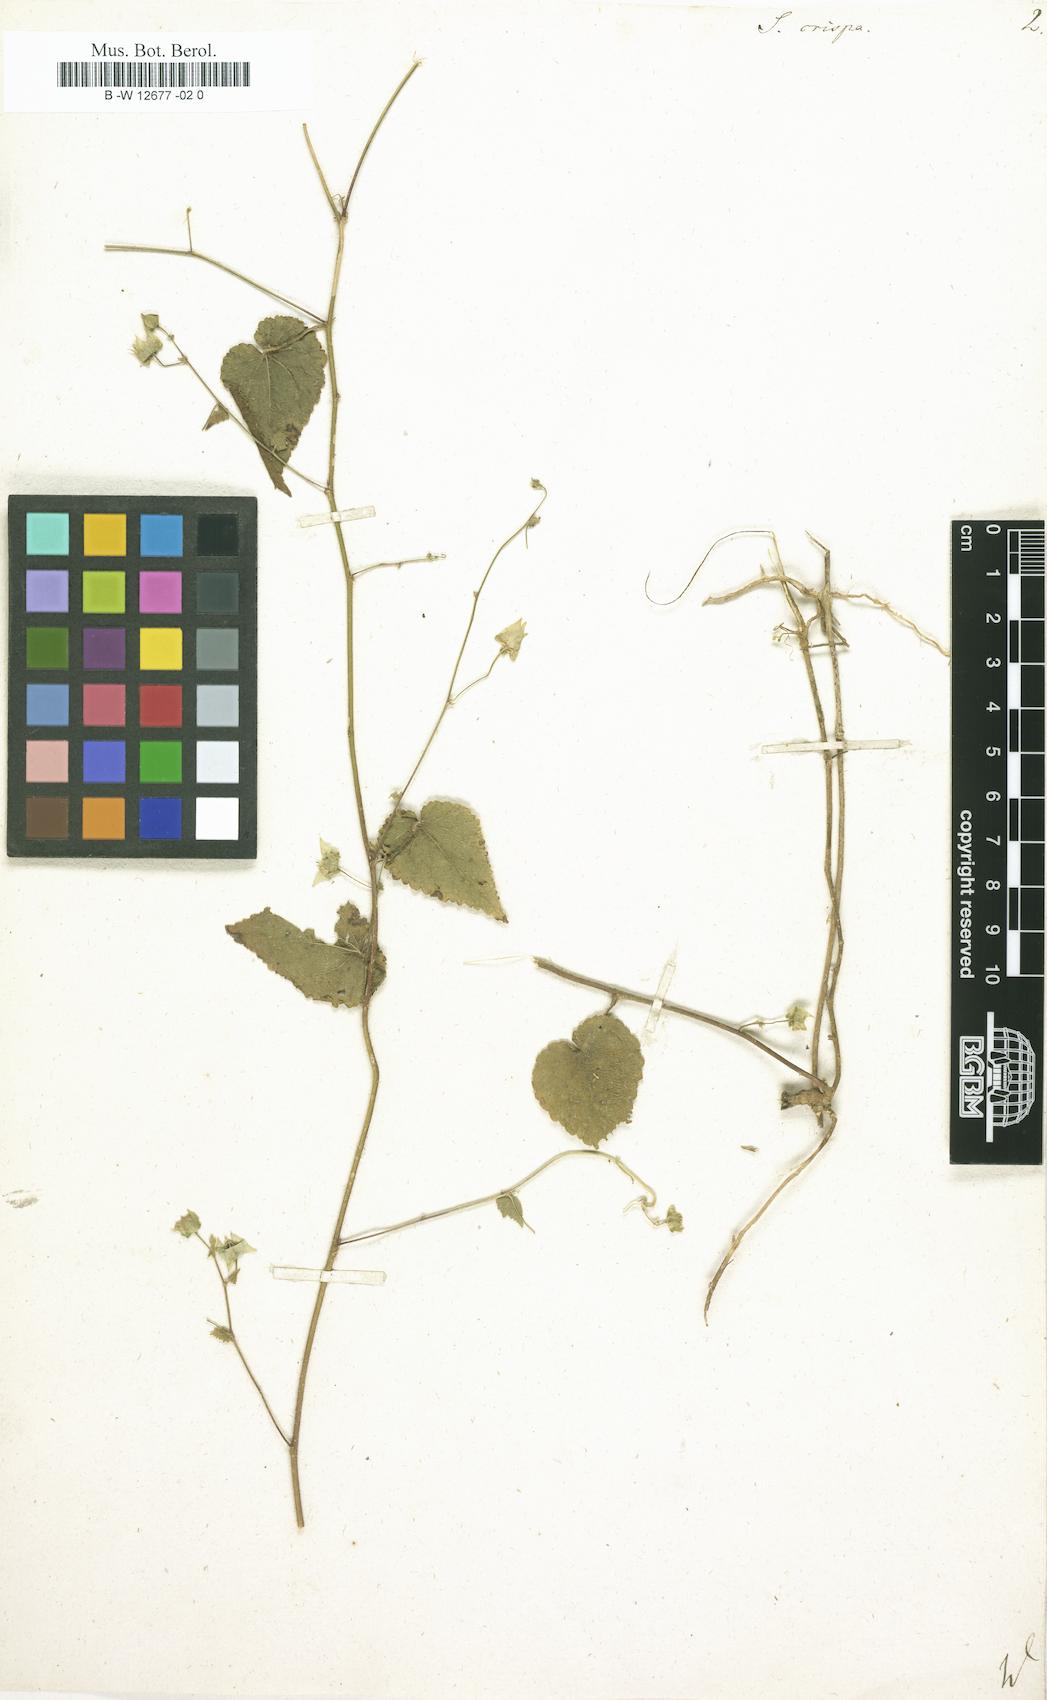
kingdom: Plantae
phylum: Tracheophyta
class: Magnoliopsida
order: Malvales
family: Malvaceae
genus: Herissantia
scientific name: Herissantia crispa
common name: Bladdermallow
